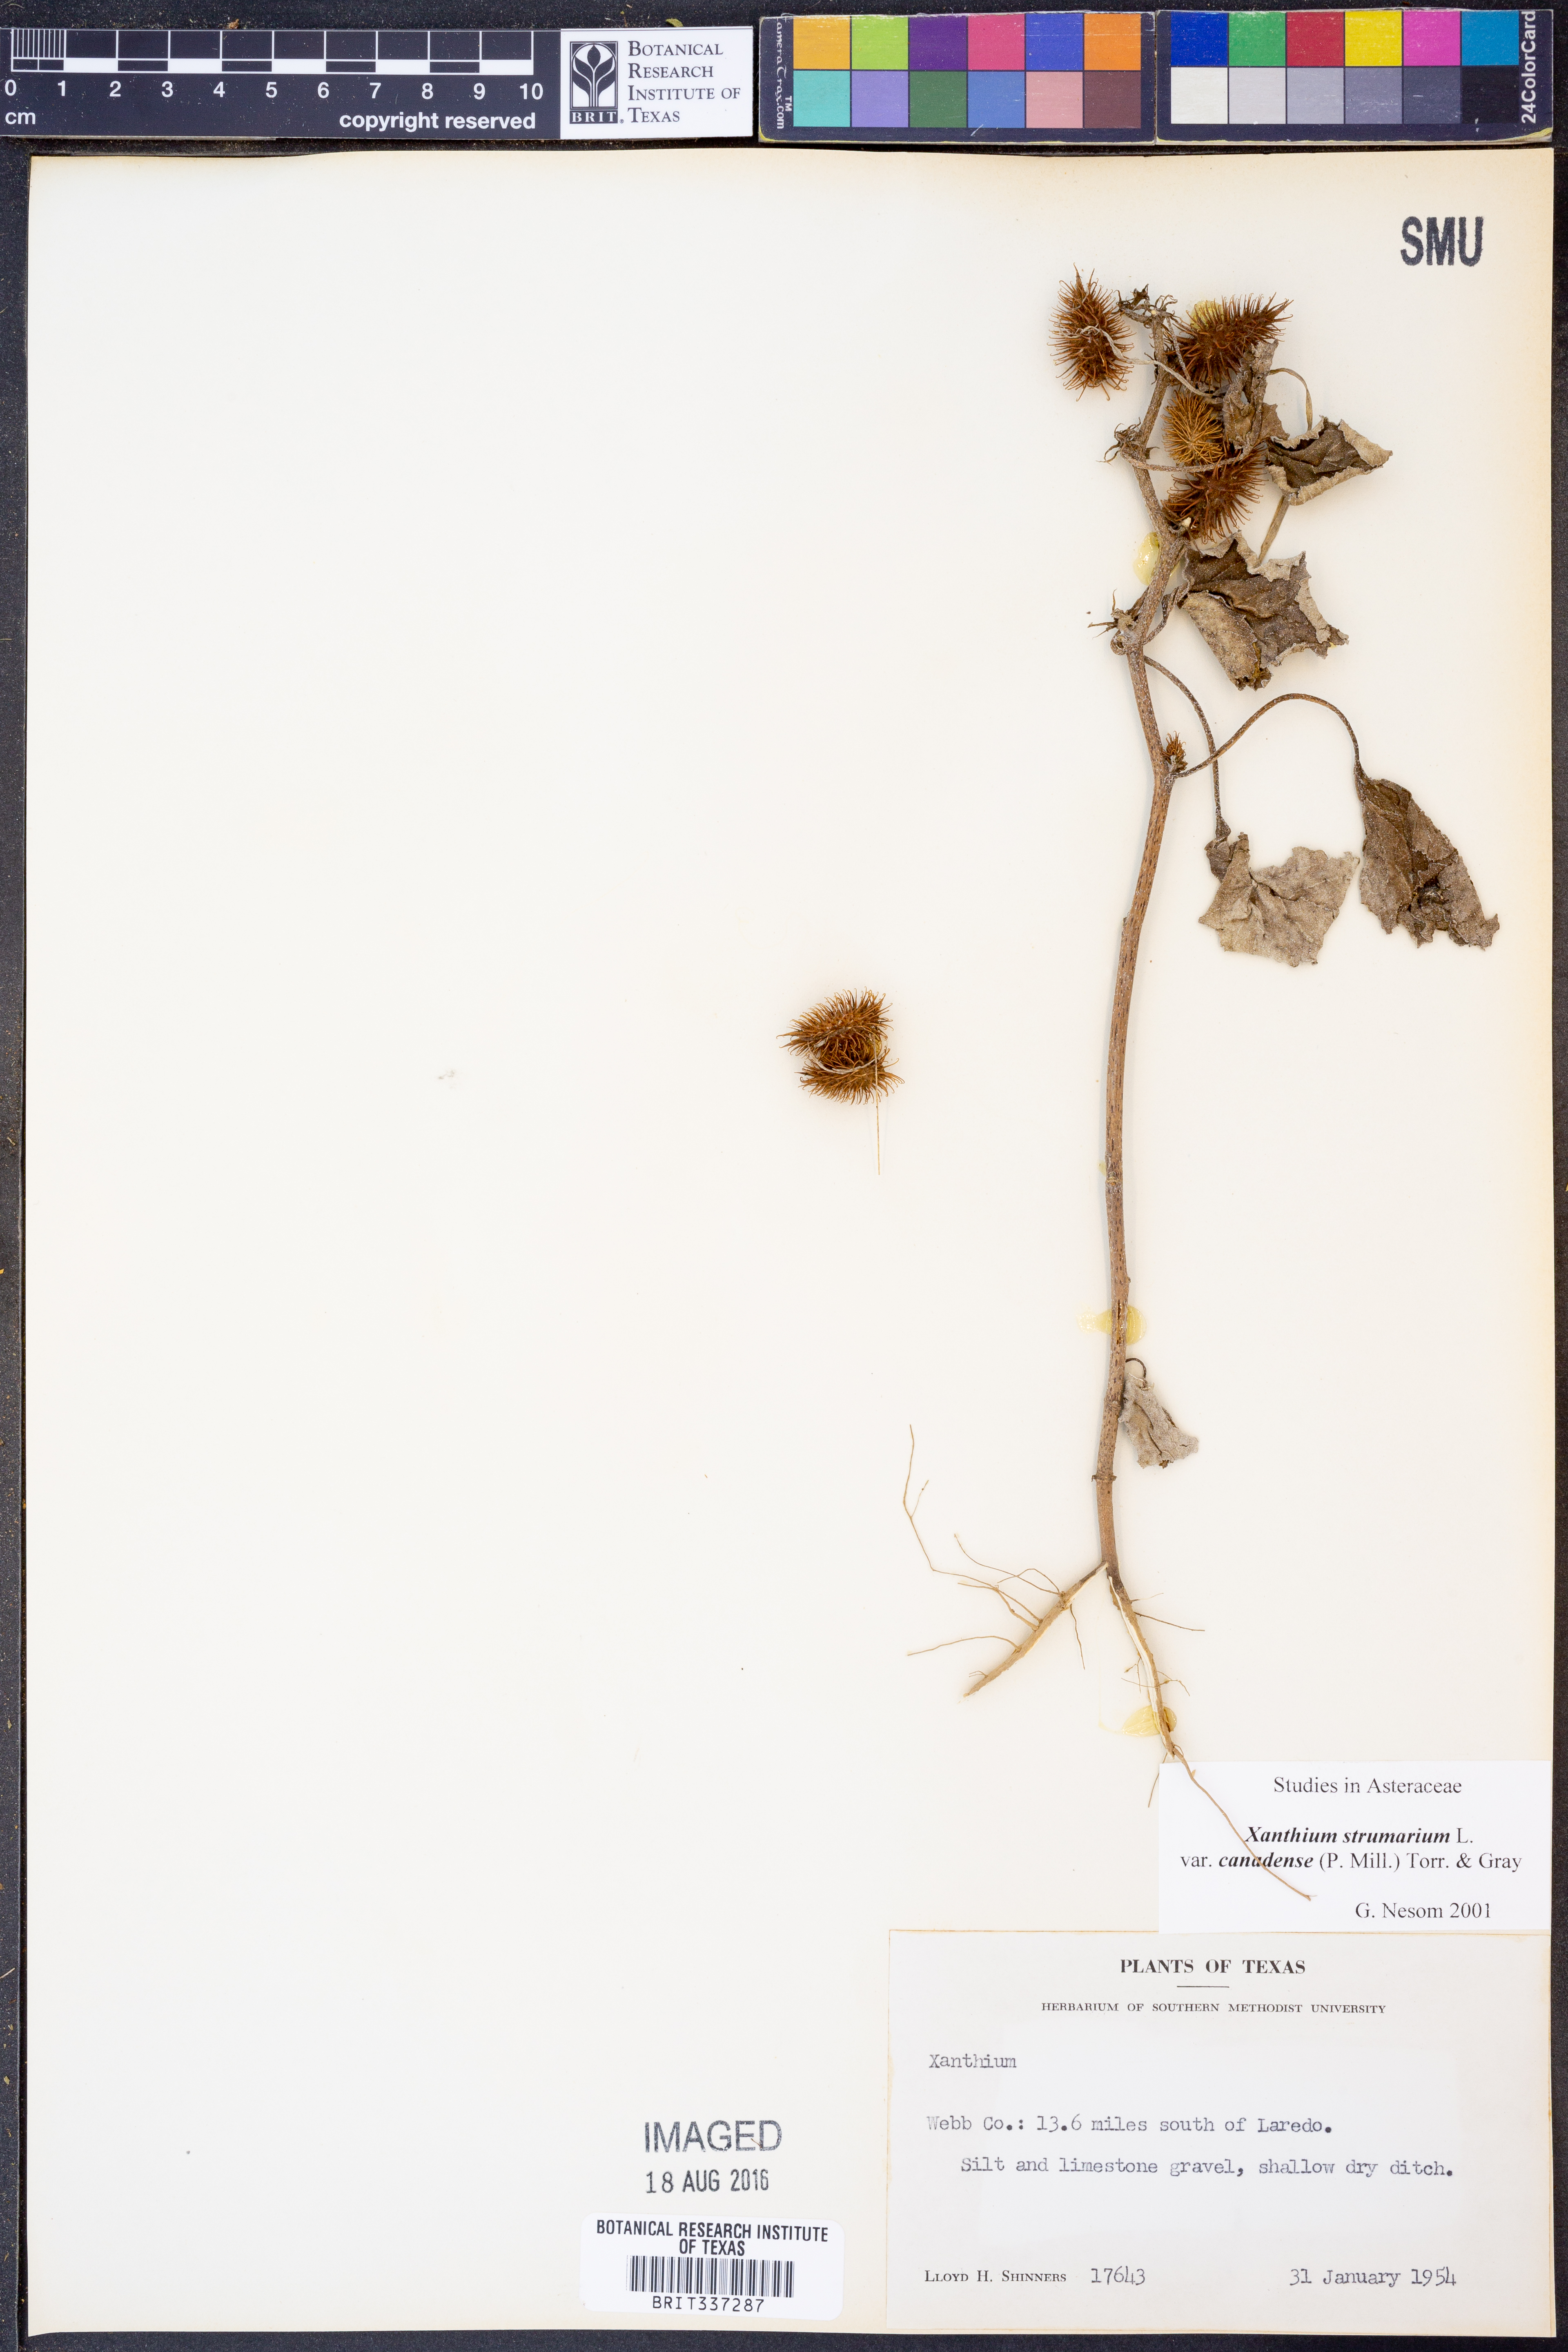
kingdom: Plantae
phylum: Tracheophyta
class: Magnoliopsida
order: Asterales
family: Asteraceae
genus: Xanthium
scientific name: Xanthium orientale
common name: Californian burr
